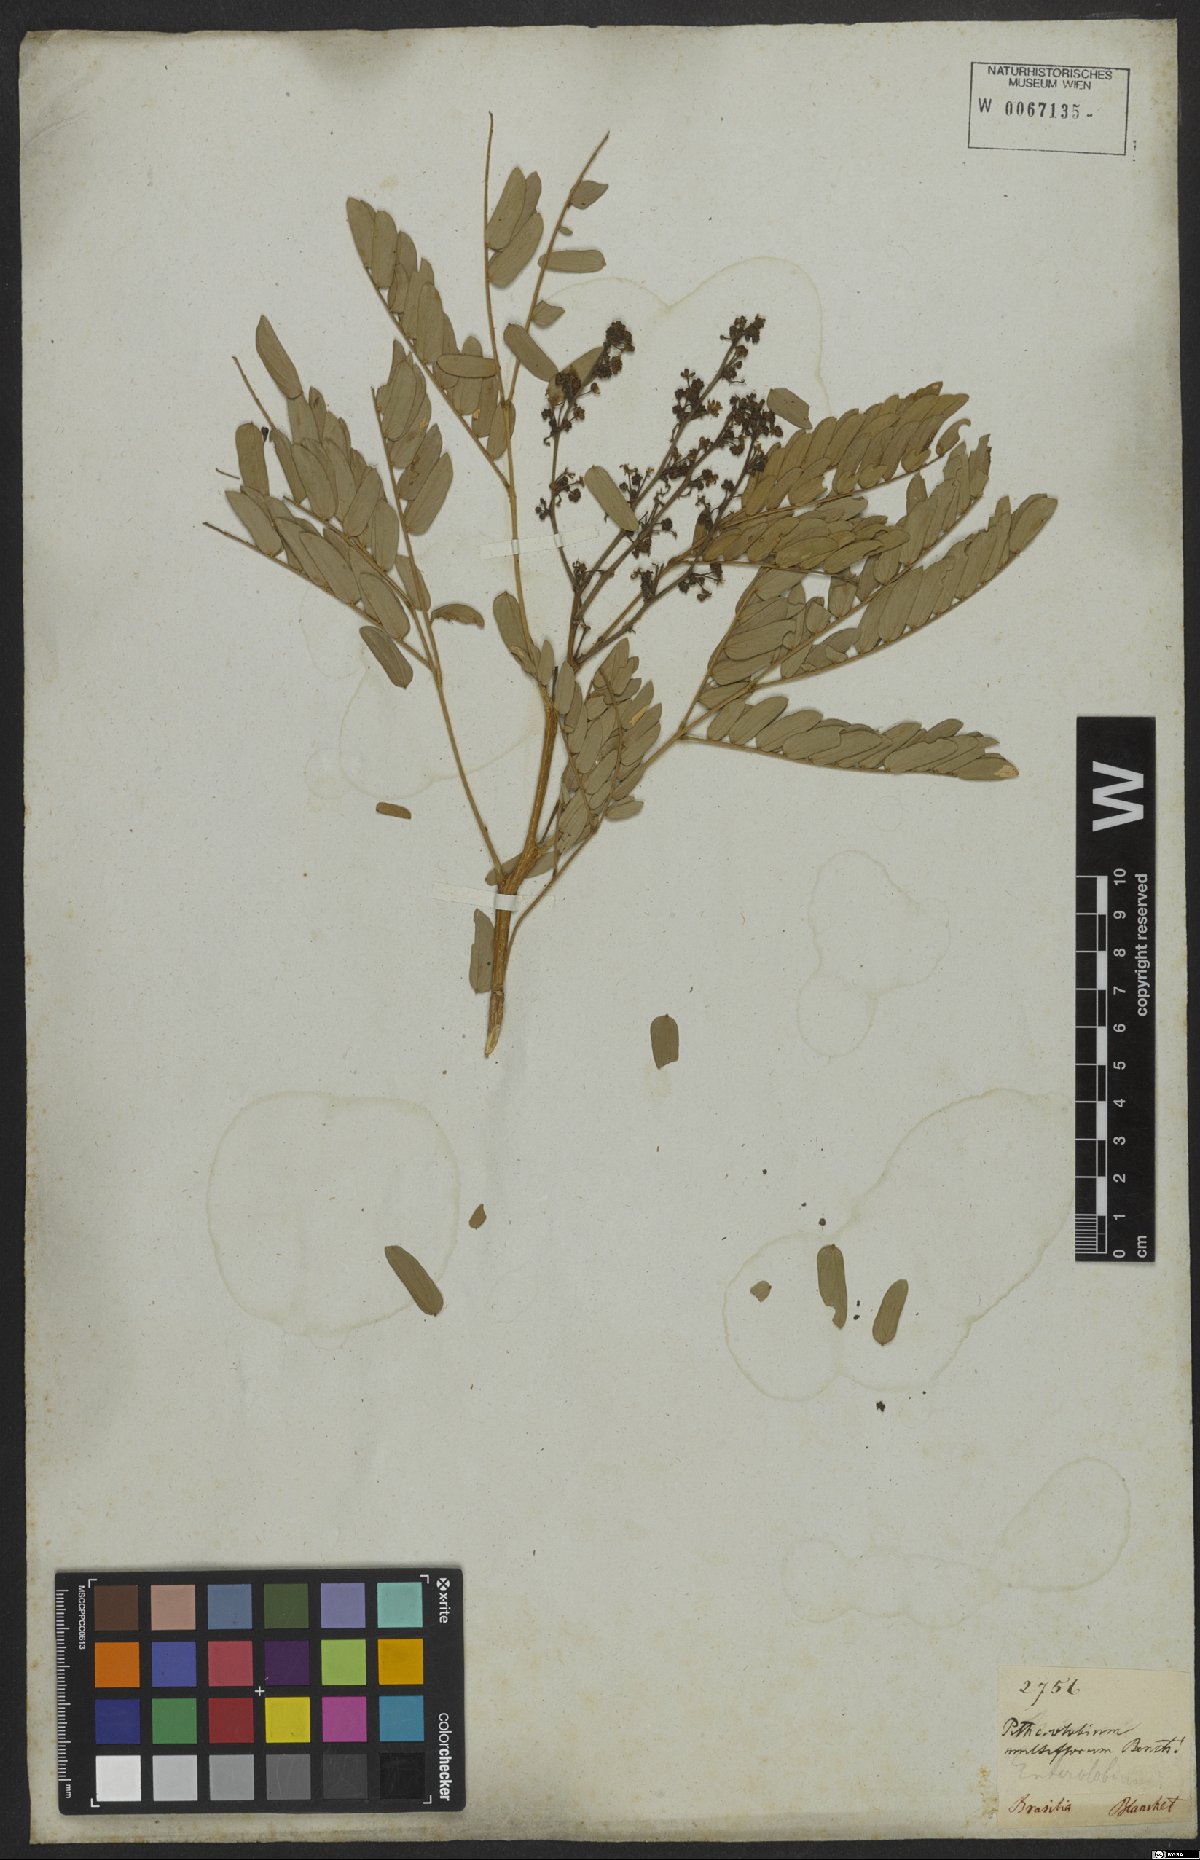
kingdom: Plantae
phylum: Tracheophyta
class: Magnoliopsida
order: Fabales
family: Fabaceae
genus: Albizia
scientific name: Albizia multiflora
